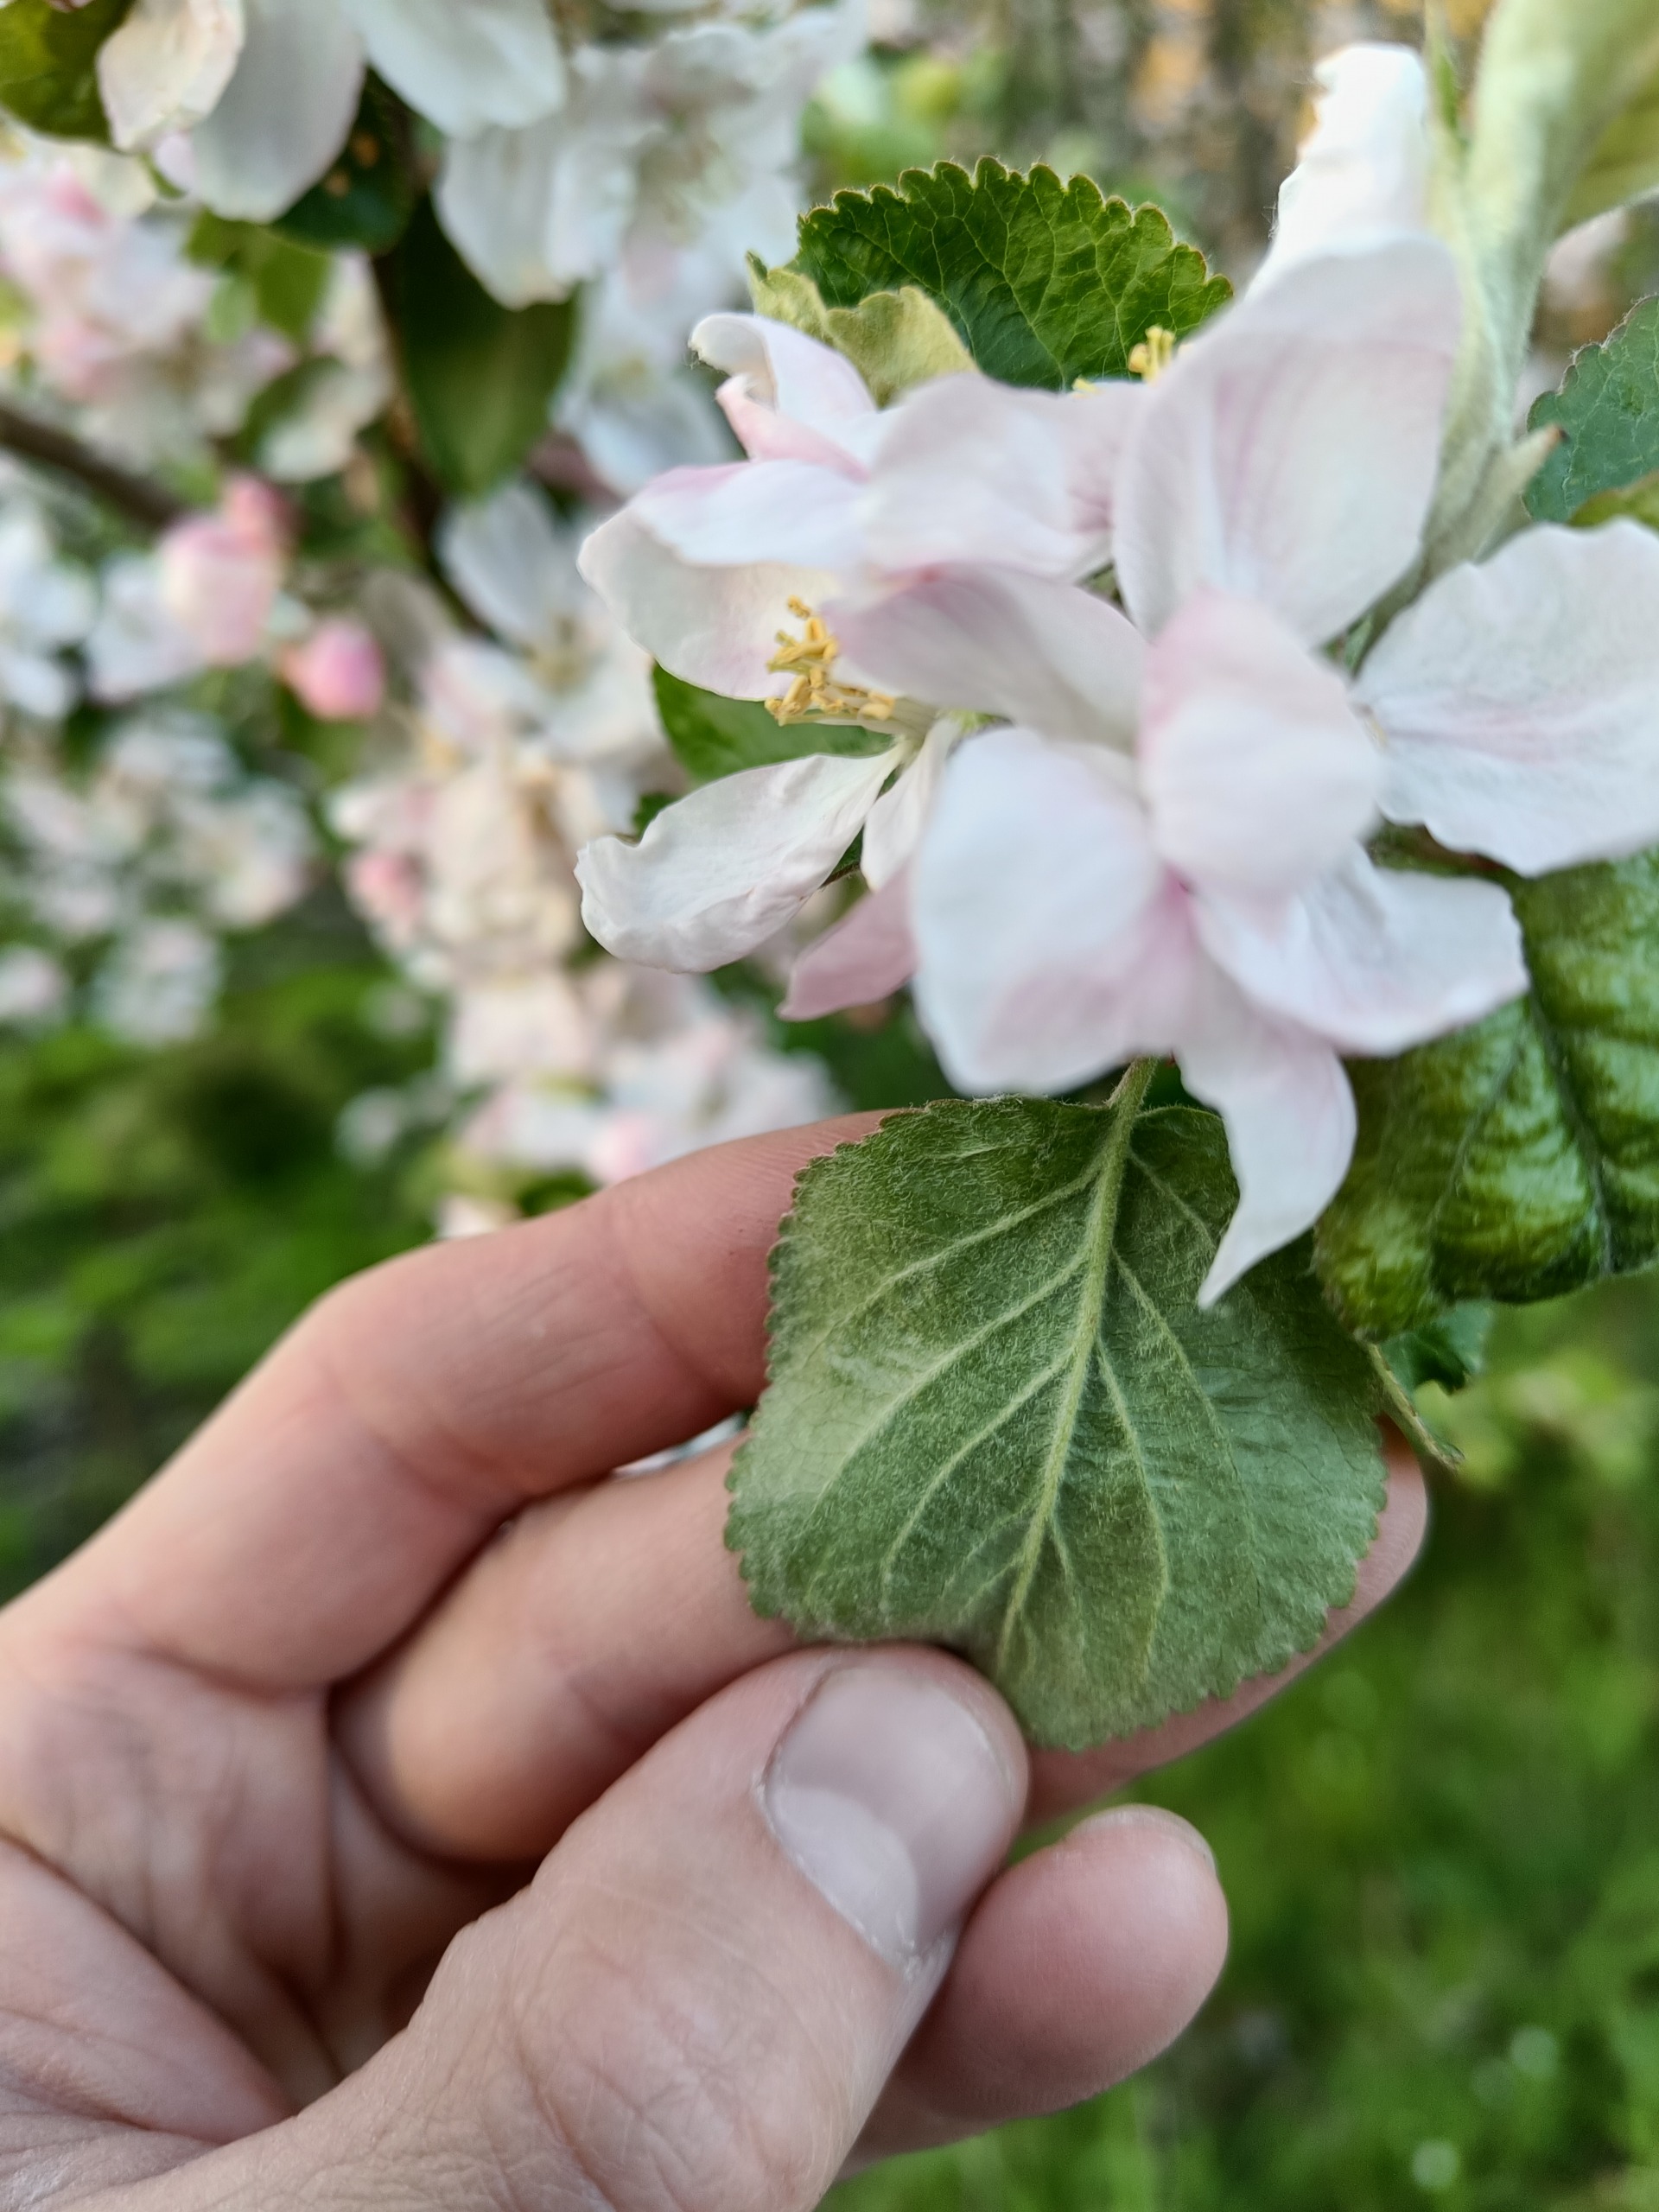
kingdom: Plantae
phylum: Tracheophyta
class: Magnoliopsida
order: Rosales
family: Rosaceae
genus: Malus
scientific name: Malus domestica
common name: Sød-æble
